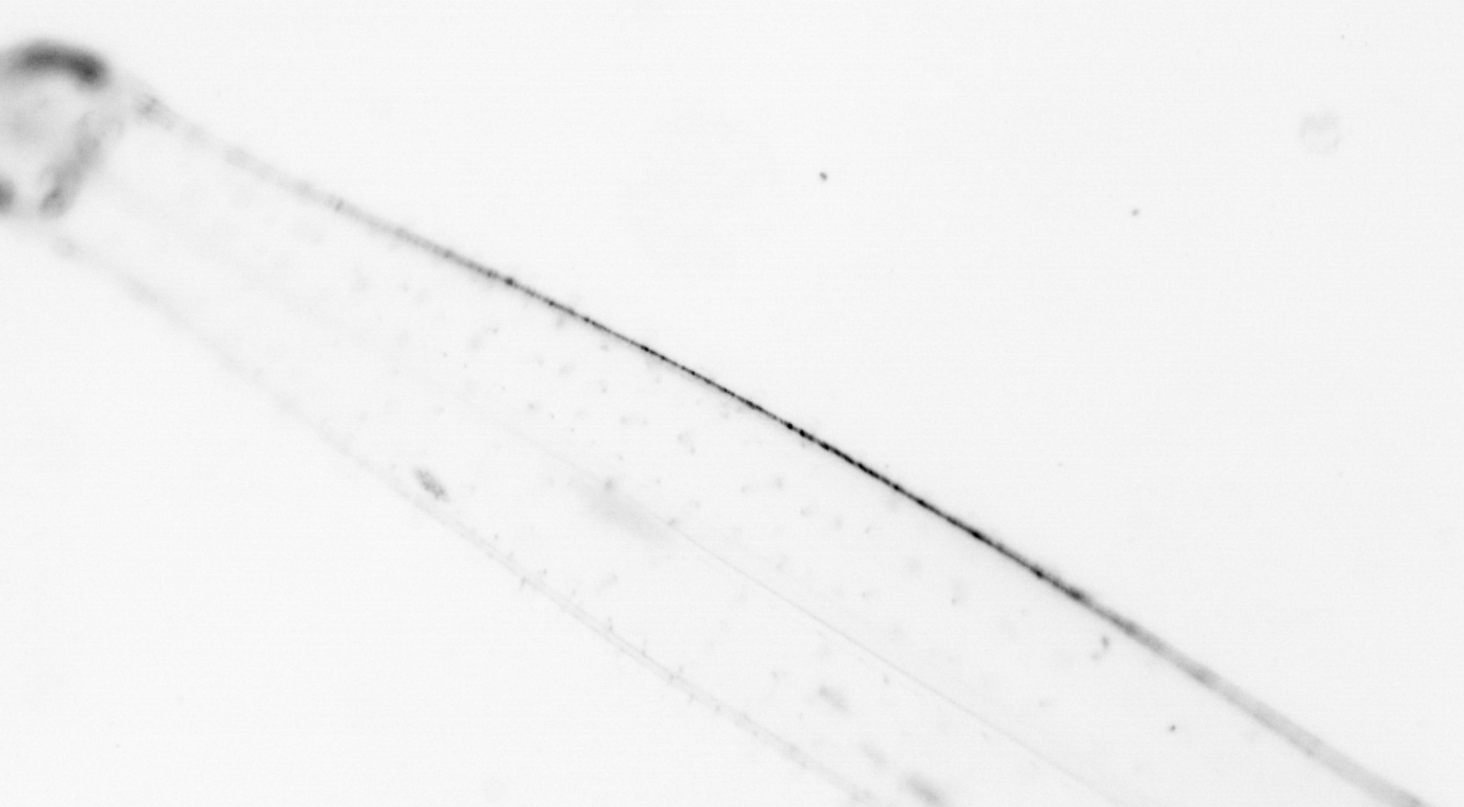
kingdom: Animalia
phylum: Chaetognatha
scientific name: Chaetognatha
